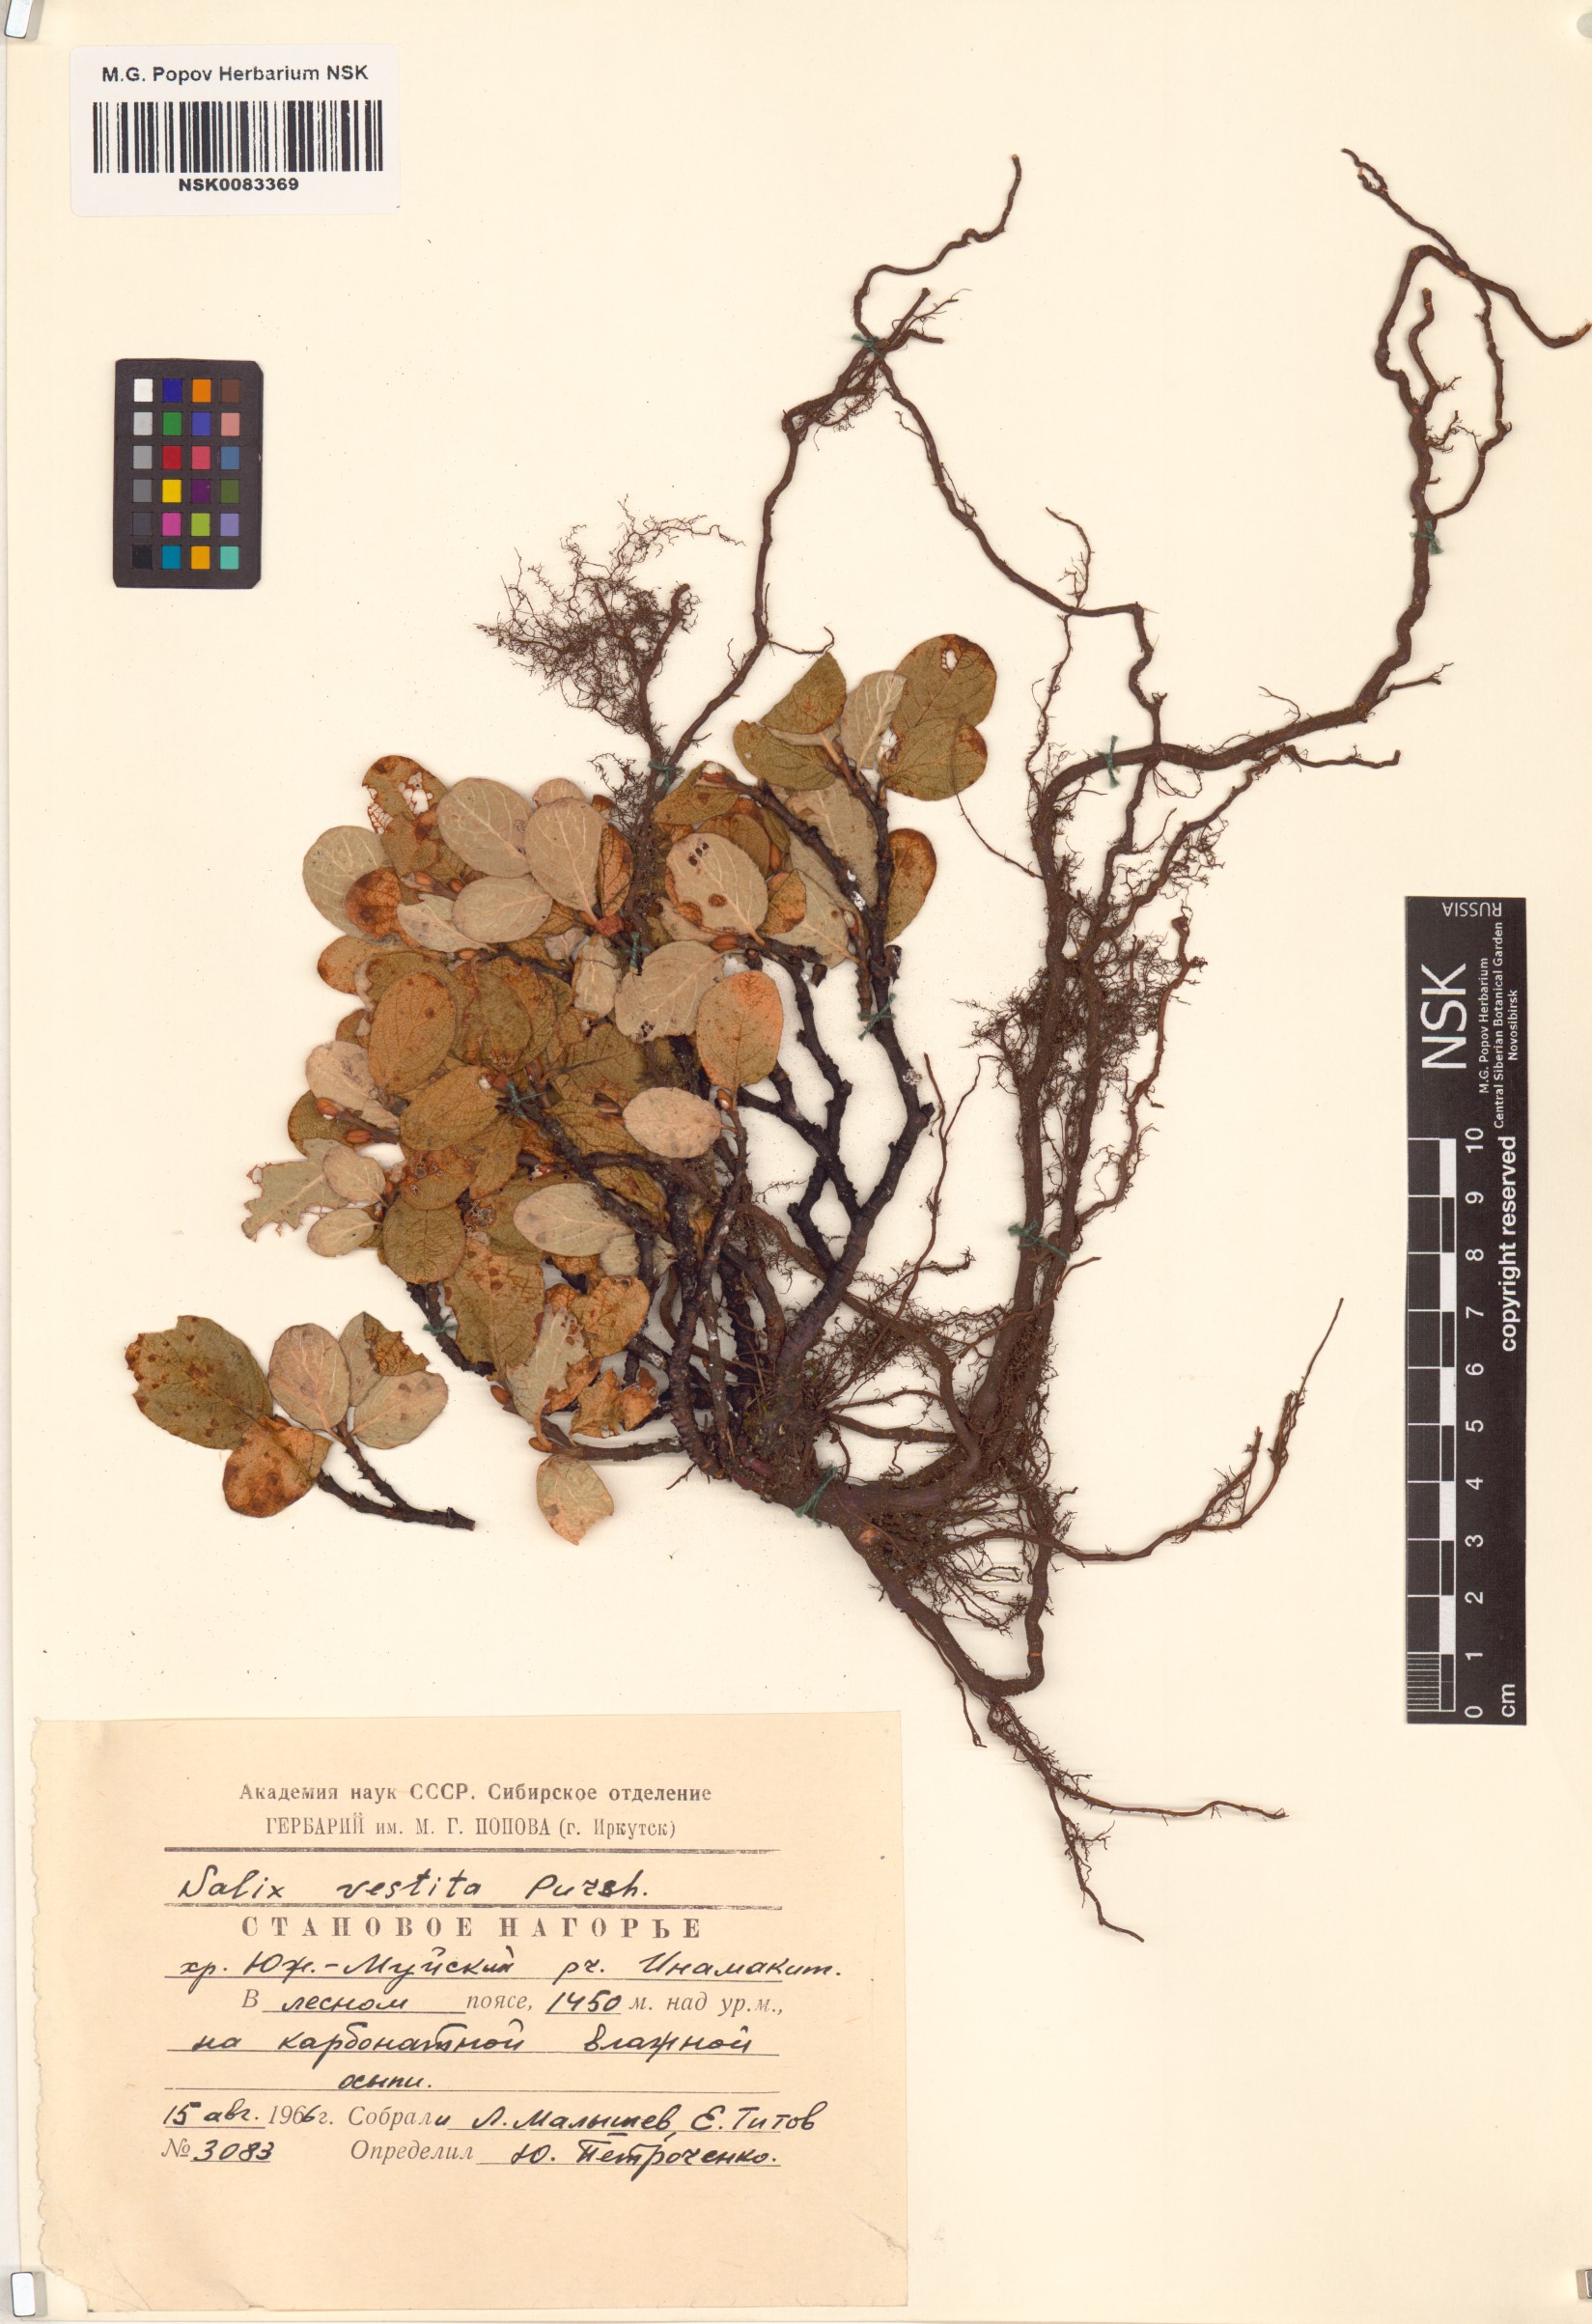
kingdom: Plantae
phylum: Tracheophyta
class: Magnoliopsida
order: Malpighiales
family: Salicaceae
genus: Salix
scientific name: Salix vestita
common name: Hairy willow
